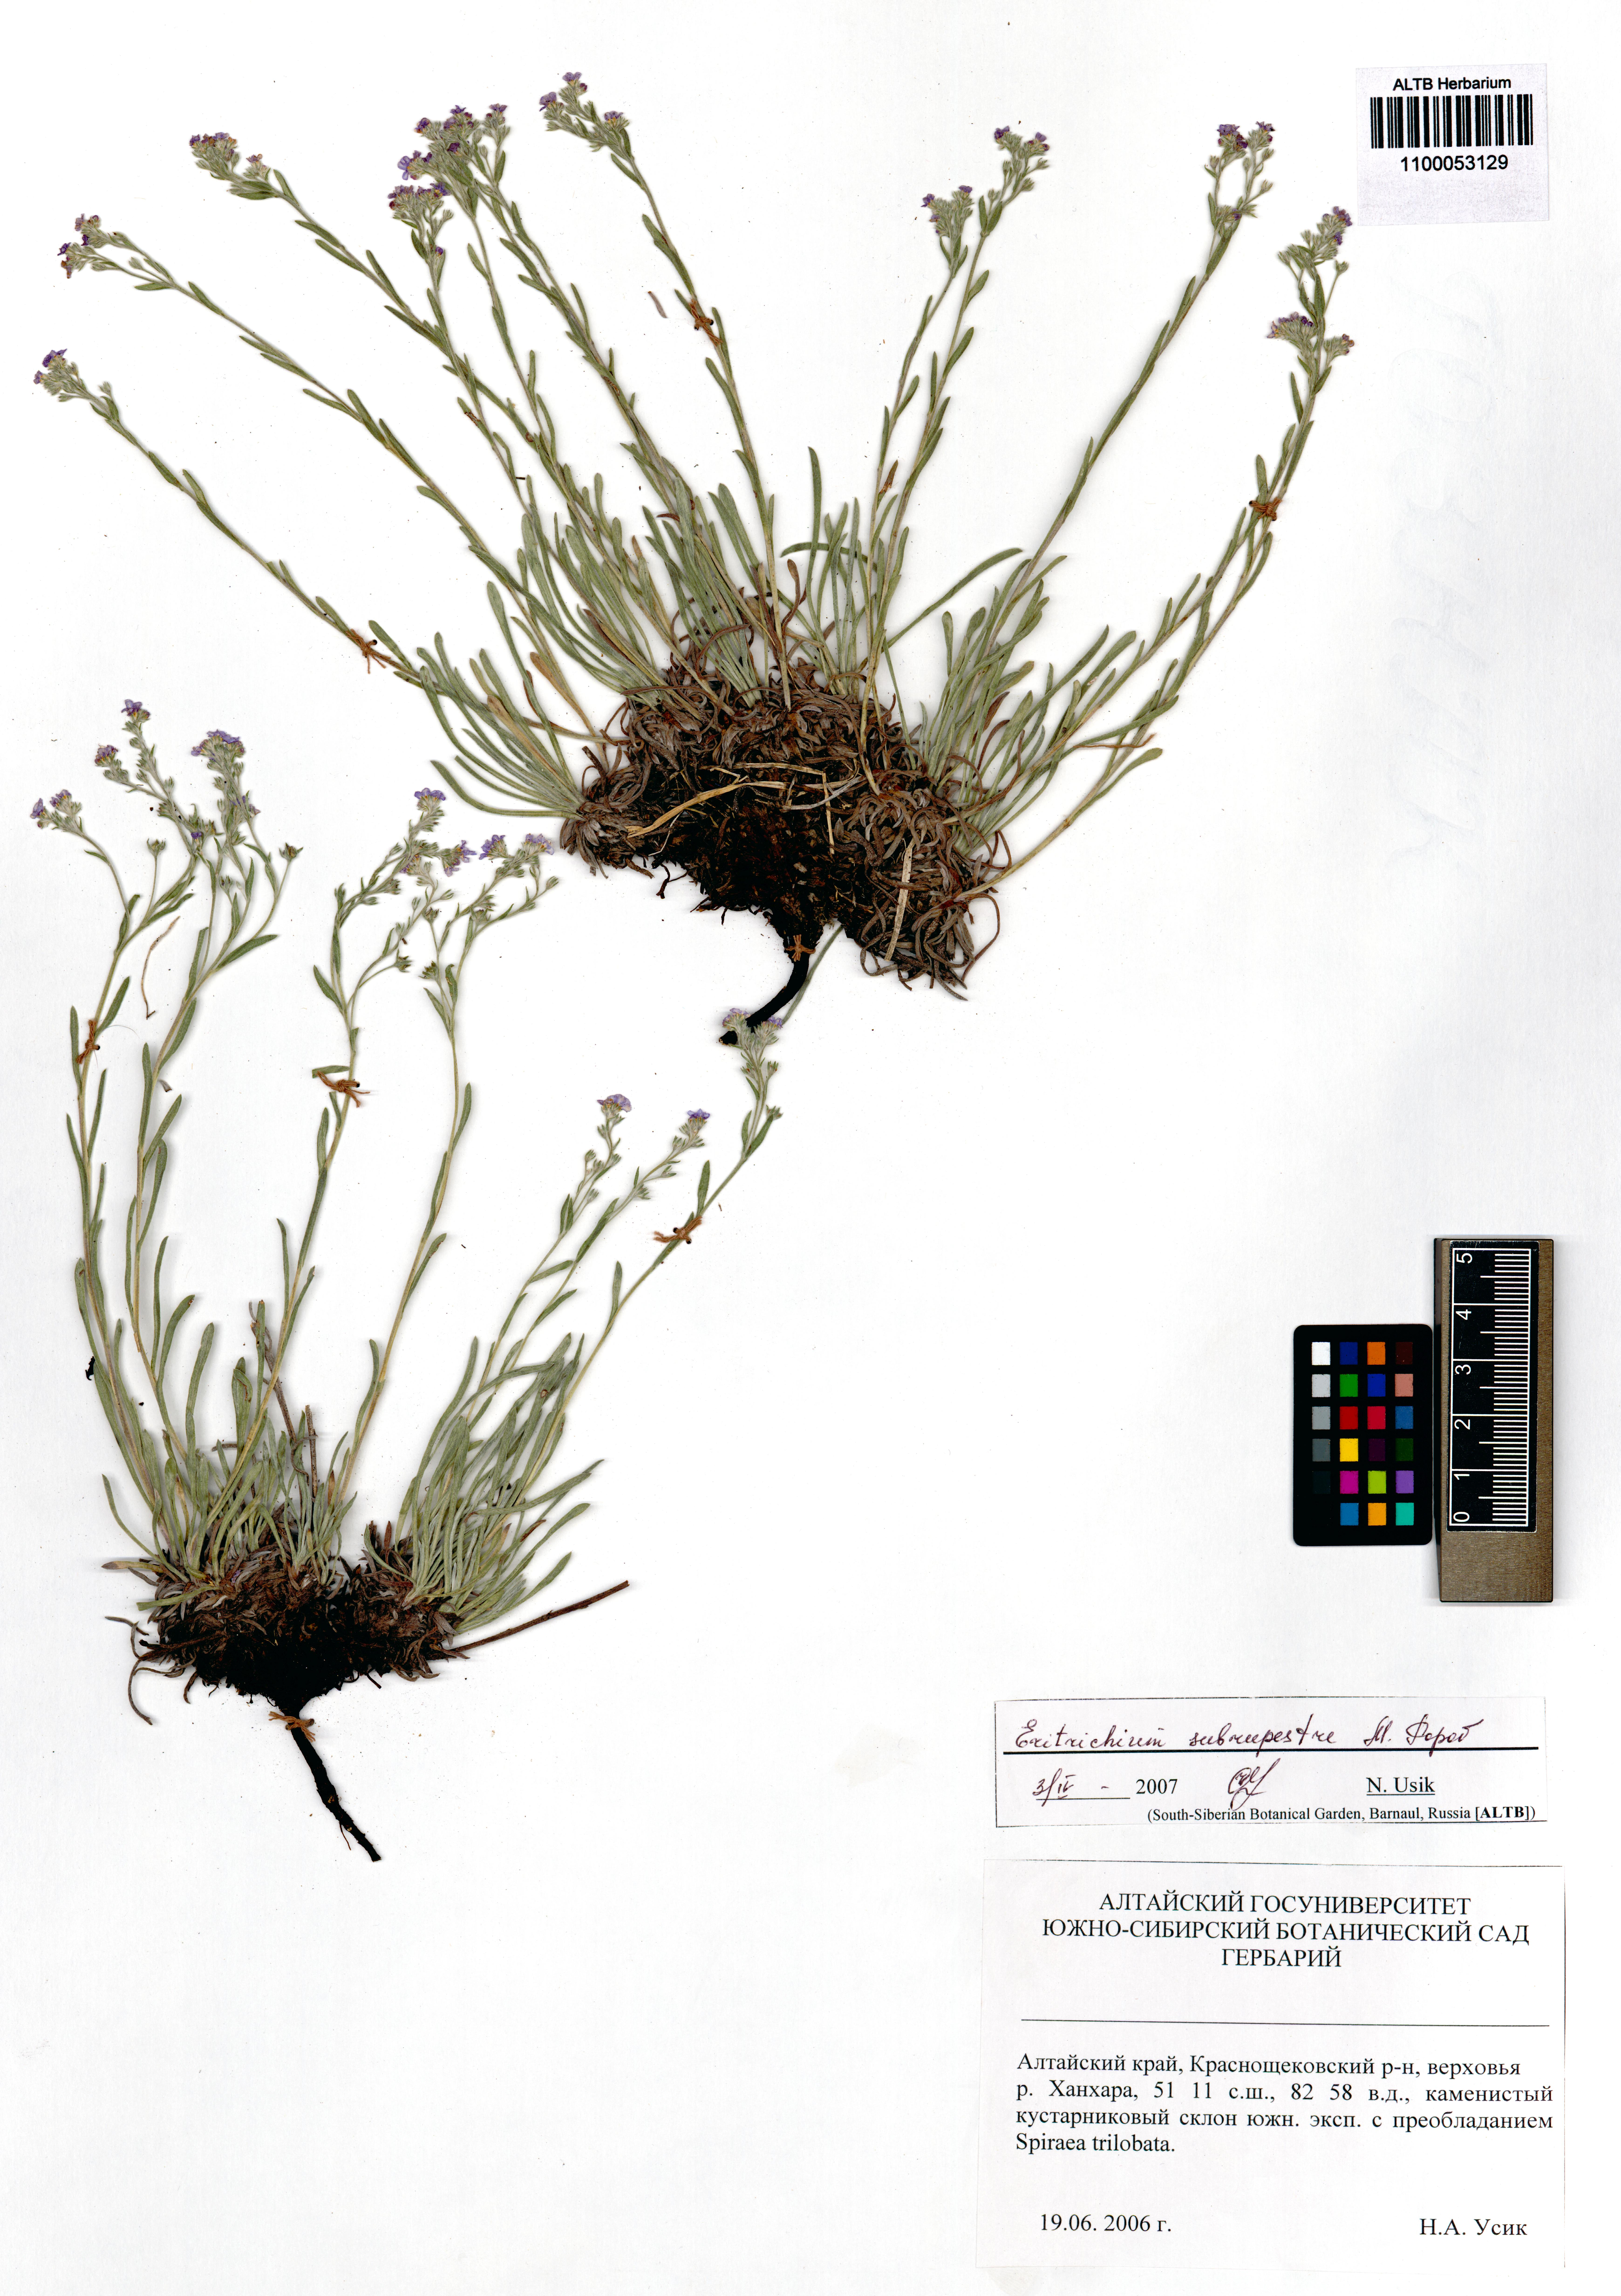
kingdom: Plantae
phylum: Tracheophyta
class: Magnoliopsida
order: Boraginales
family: Boraginaceae
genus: Eritrichium
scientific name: Eritrichium pauciflorum
